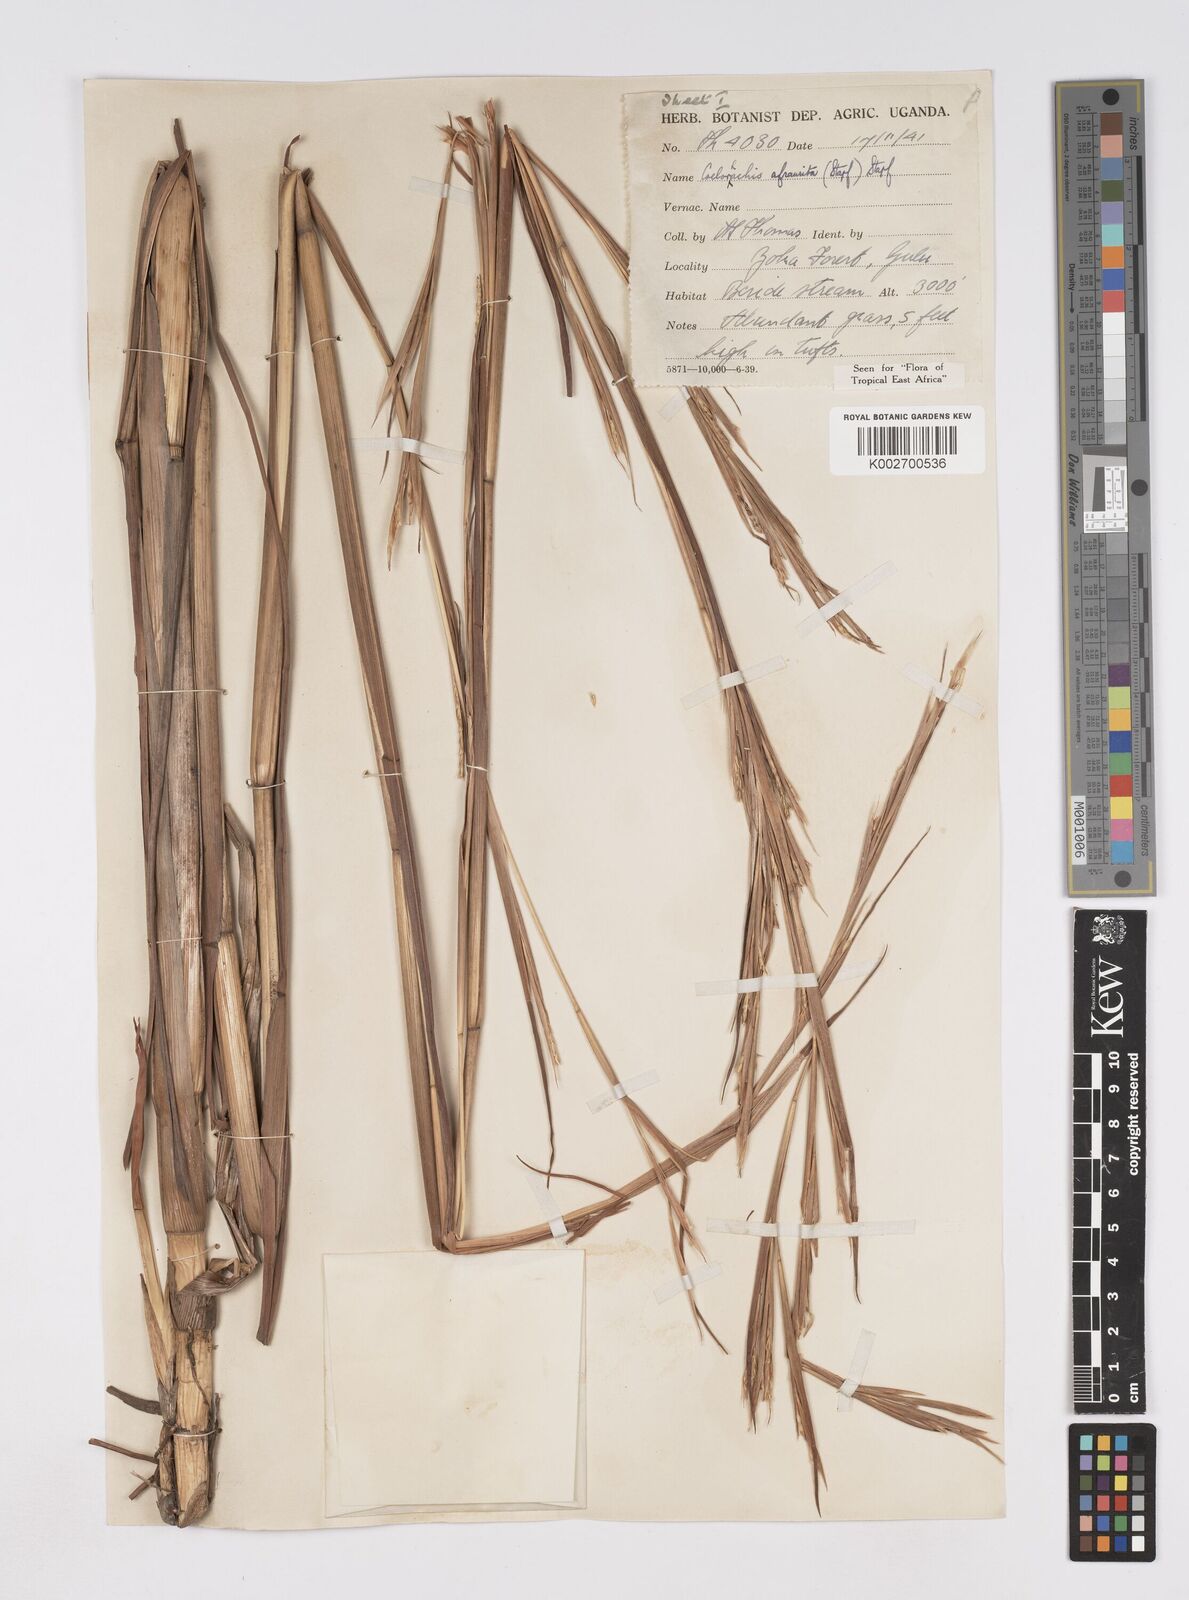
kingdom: Plantae
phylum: Tracheophyta
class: Liliopsida
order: Poales
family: Poaceae
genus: Rottboellia
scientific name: Rottboellia afraurita
